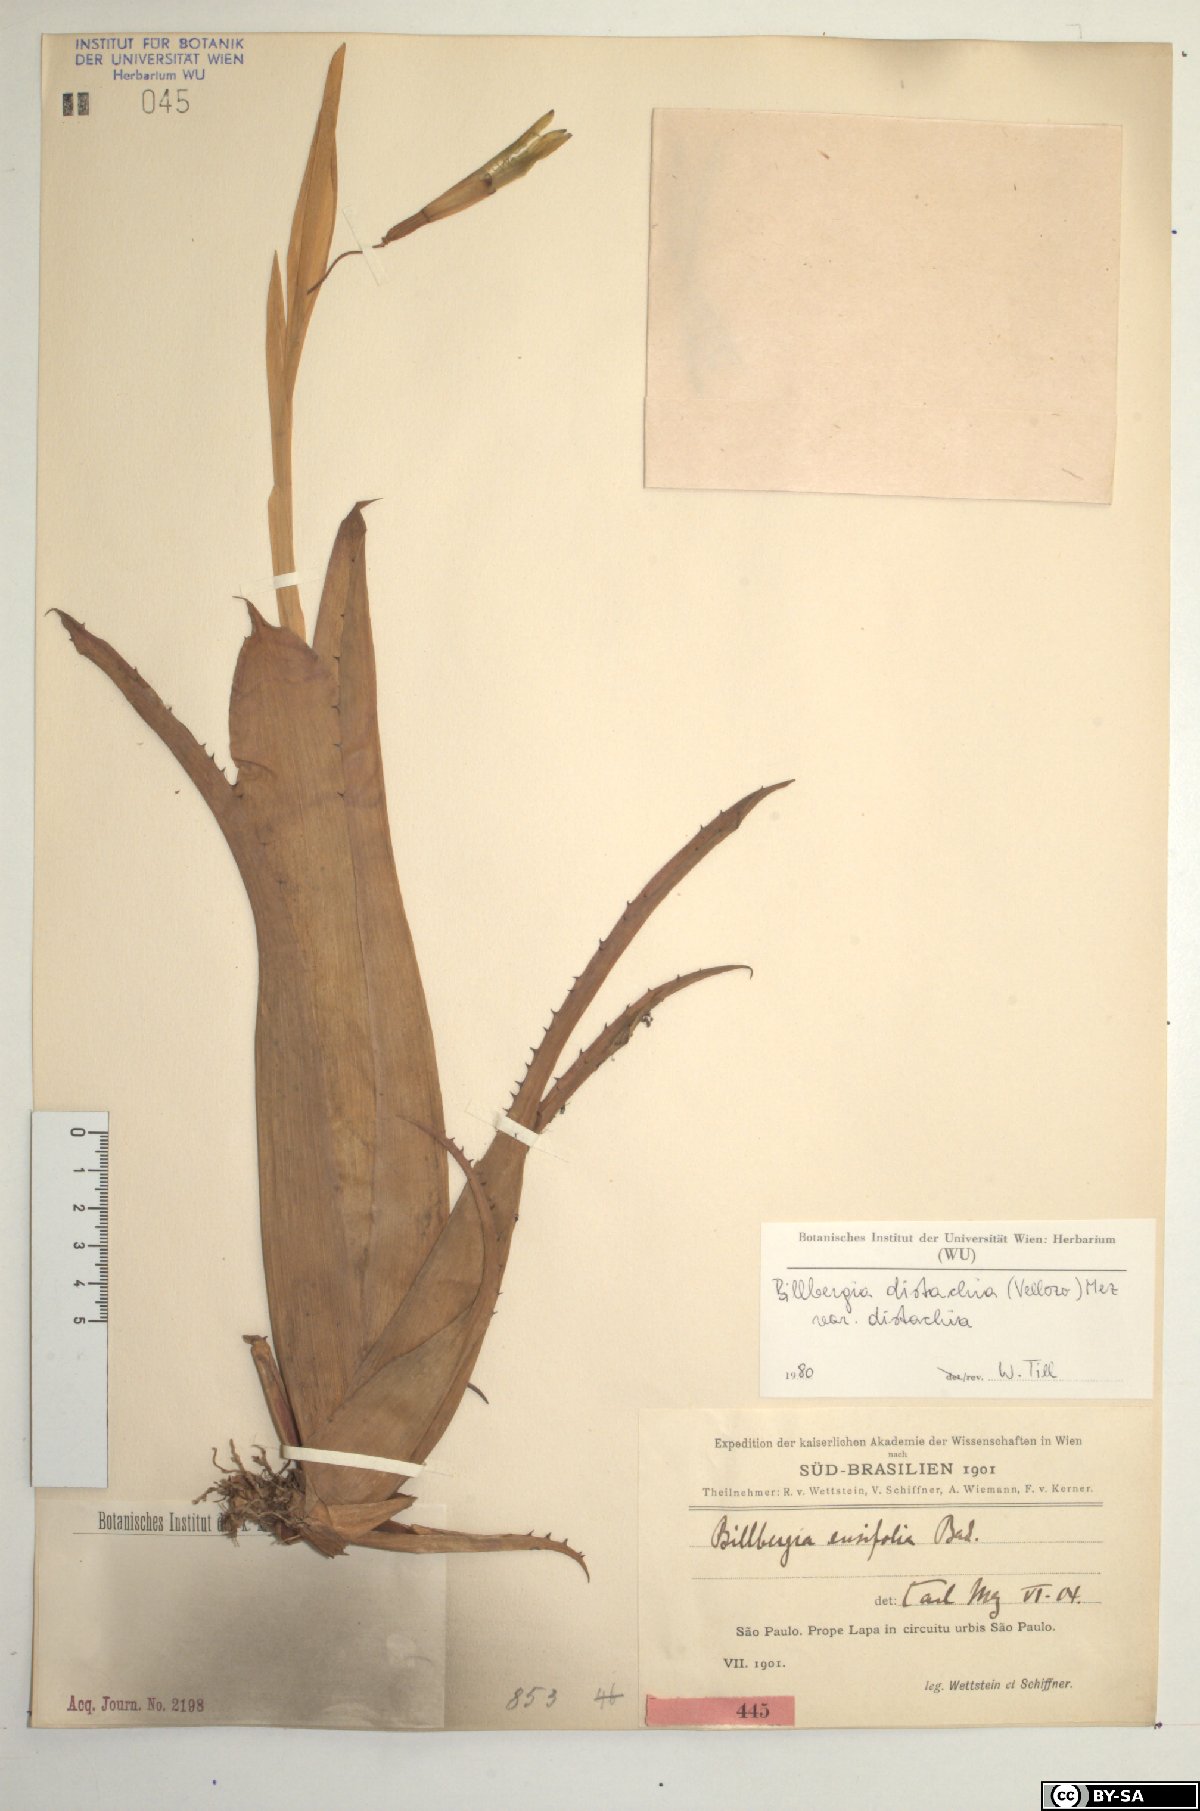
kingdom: Plantae
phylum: Tracheophyta
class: Liliopsida
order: Poales
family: Bromeliaceae
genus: Billbergia
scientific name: Billbergia distachia
